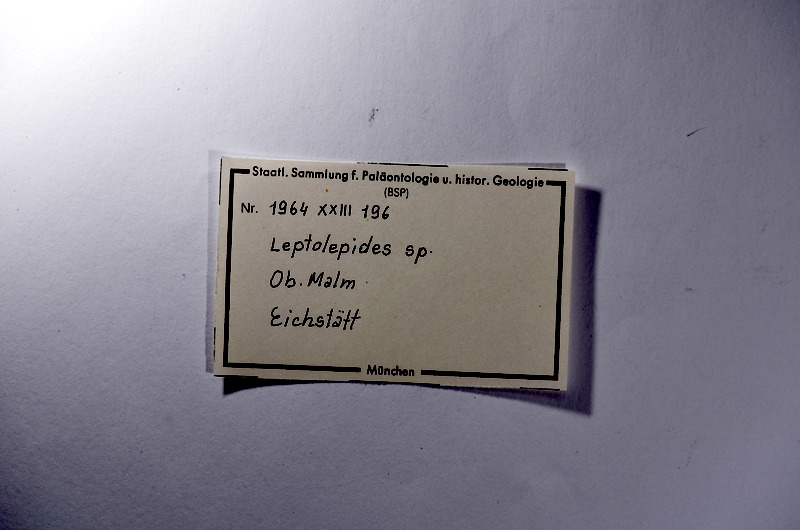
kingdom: Animalia
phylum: Chordata
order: Salmoniformes
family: Orthogonikleithridae
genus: Leptolepides
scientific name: Leptolepides
